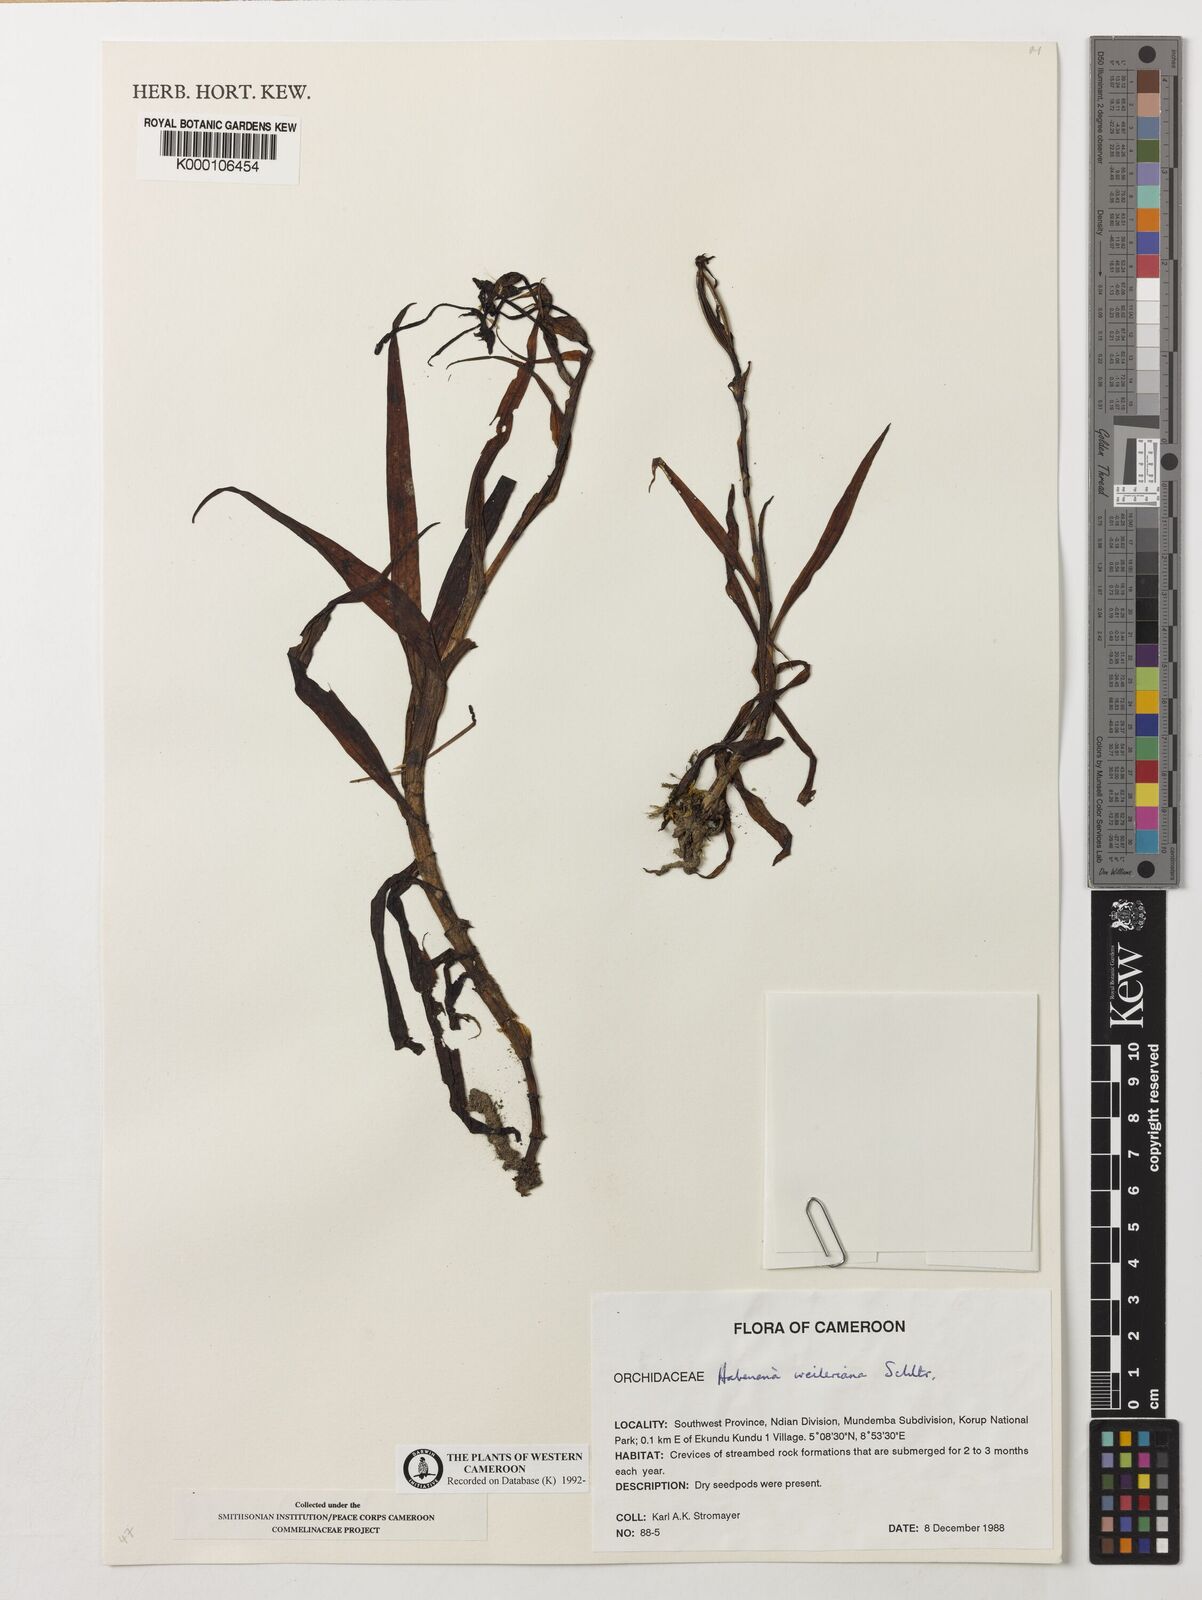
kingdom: Plantae
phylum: Tracheophyta
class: Liliopsida
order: Asparagales
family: Orchidaceae
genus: Habenaria
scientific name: Habenaria weileriana
